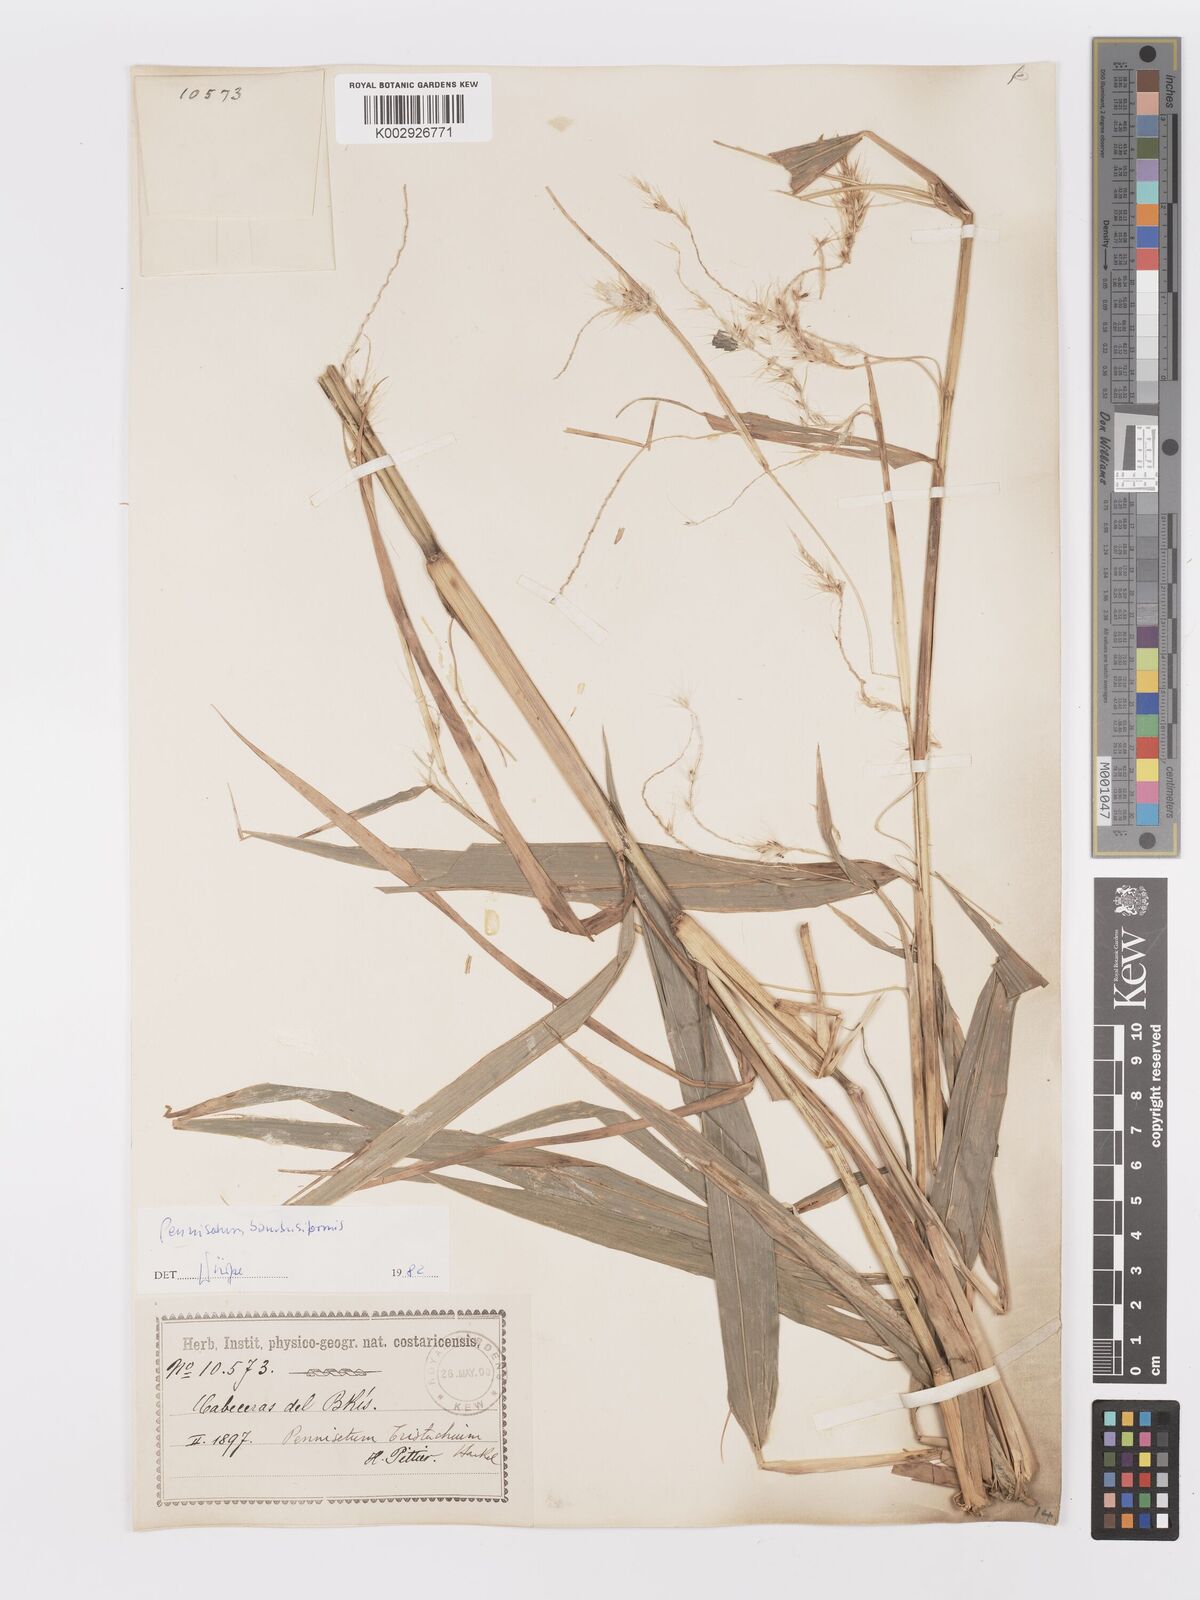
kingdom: Plantae
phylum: Tracheophyta
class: Liliopsida
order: Poales
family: Poaceae
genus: Cenchrus
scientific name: Cenchrus preslii
